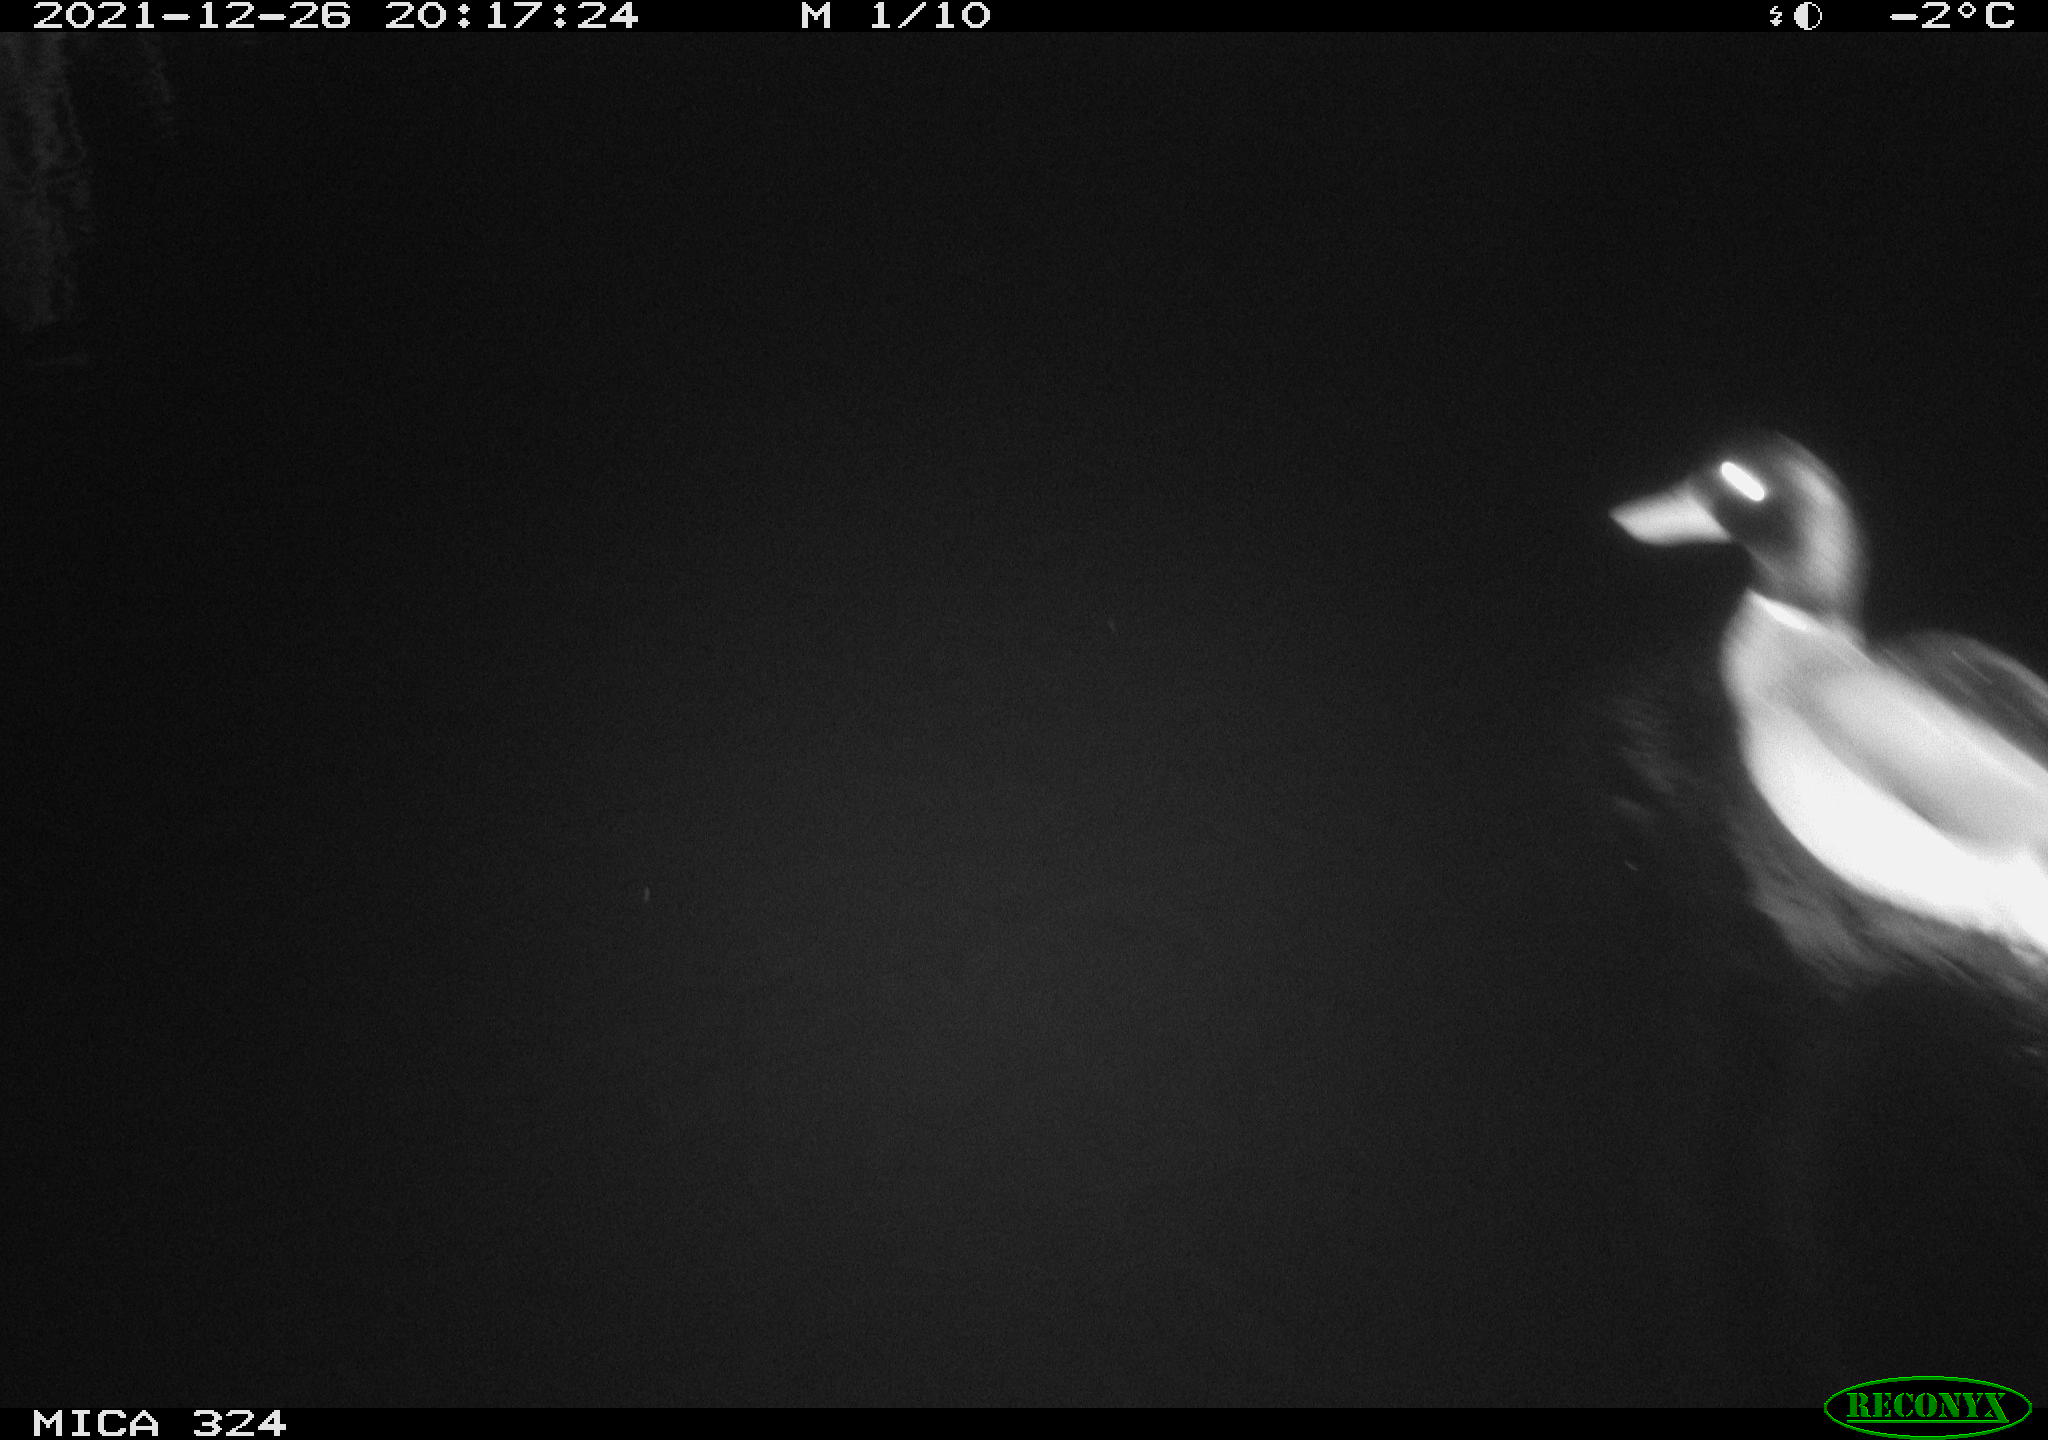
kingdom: Animalia
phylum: Chordata
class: Aves
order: Anseriformes
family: Anatidae
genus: Anas
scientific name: Anas platyrhynchos
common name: Mallard
